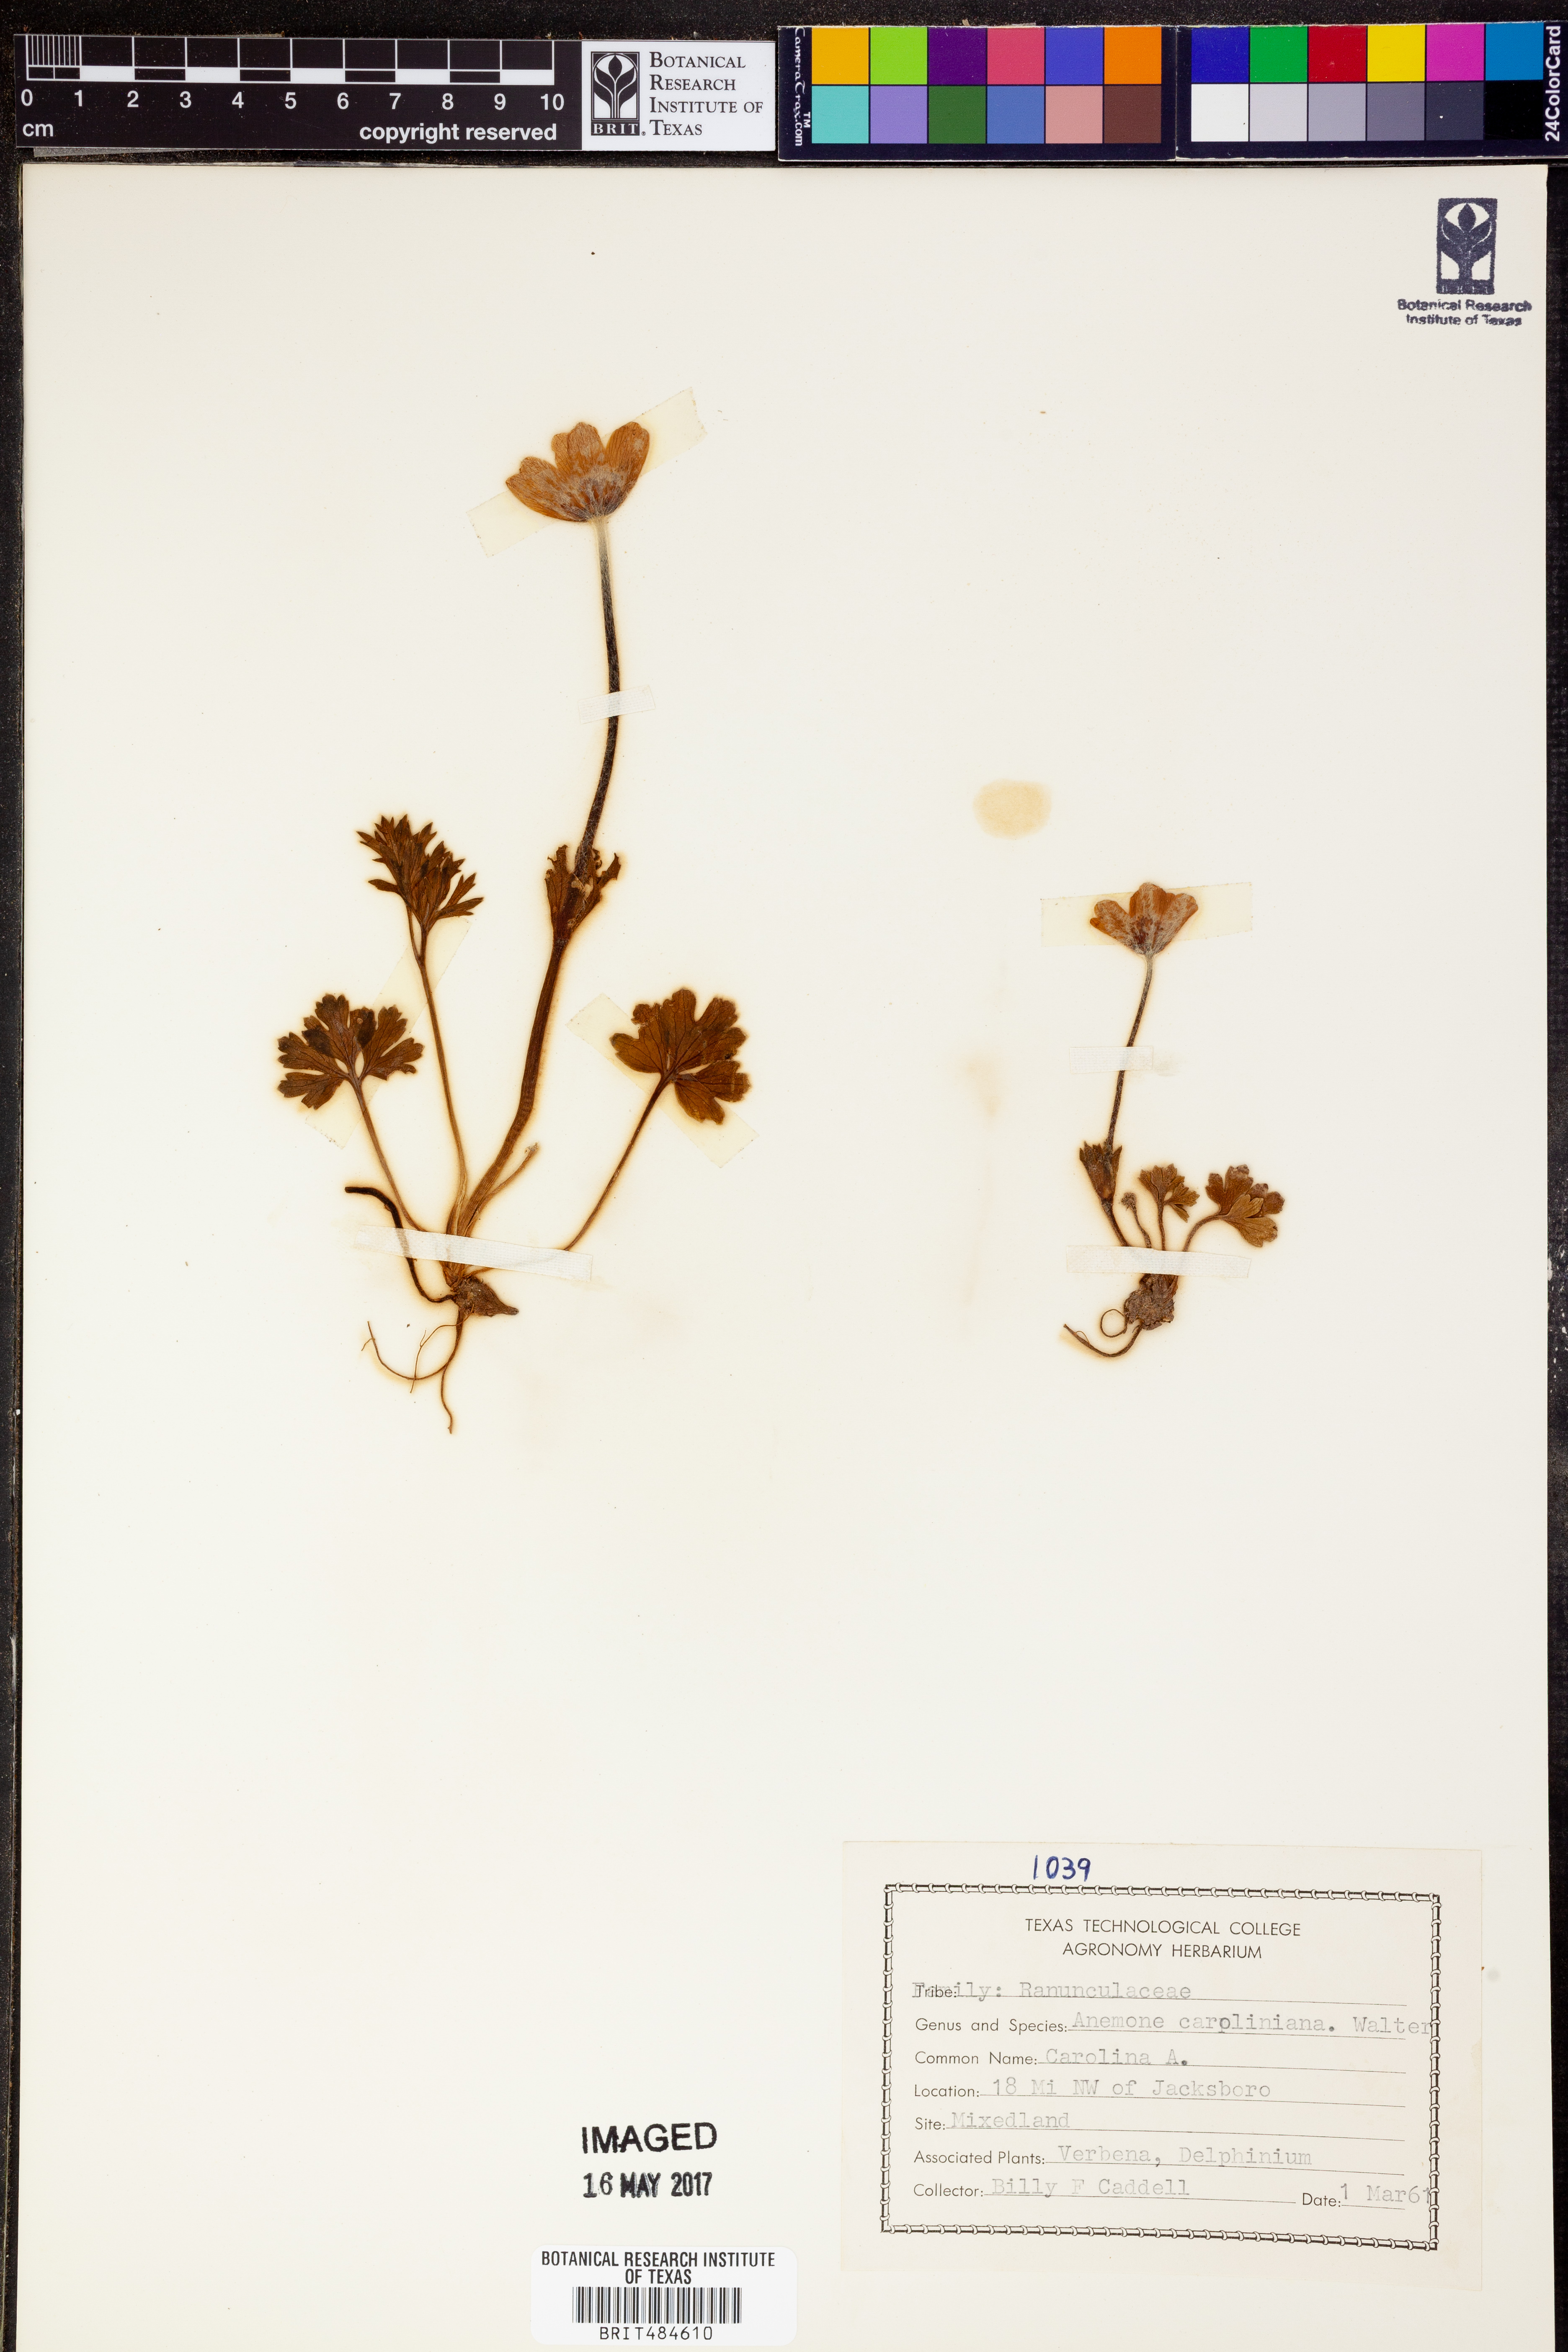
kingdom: Plantae
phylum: Tracheophyta
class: Magnoliopsida
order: Ranunculales
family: Ranunculaceae
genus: Anemone
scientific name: Anemone caroliniana
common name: Carolina anemone
